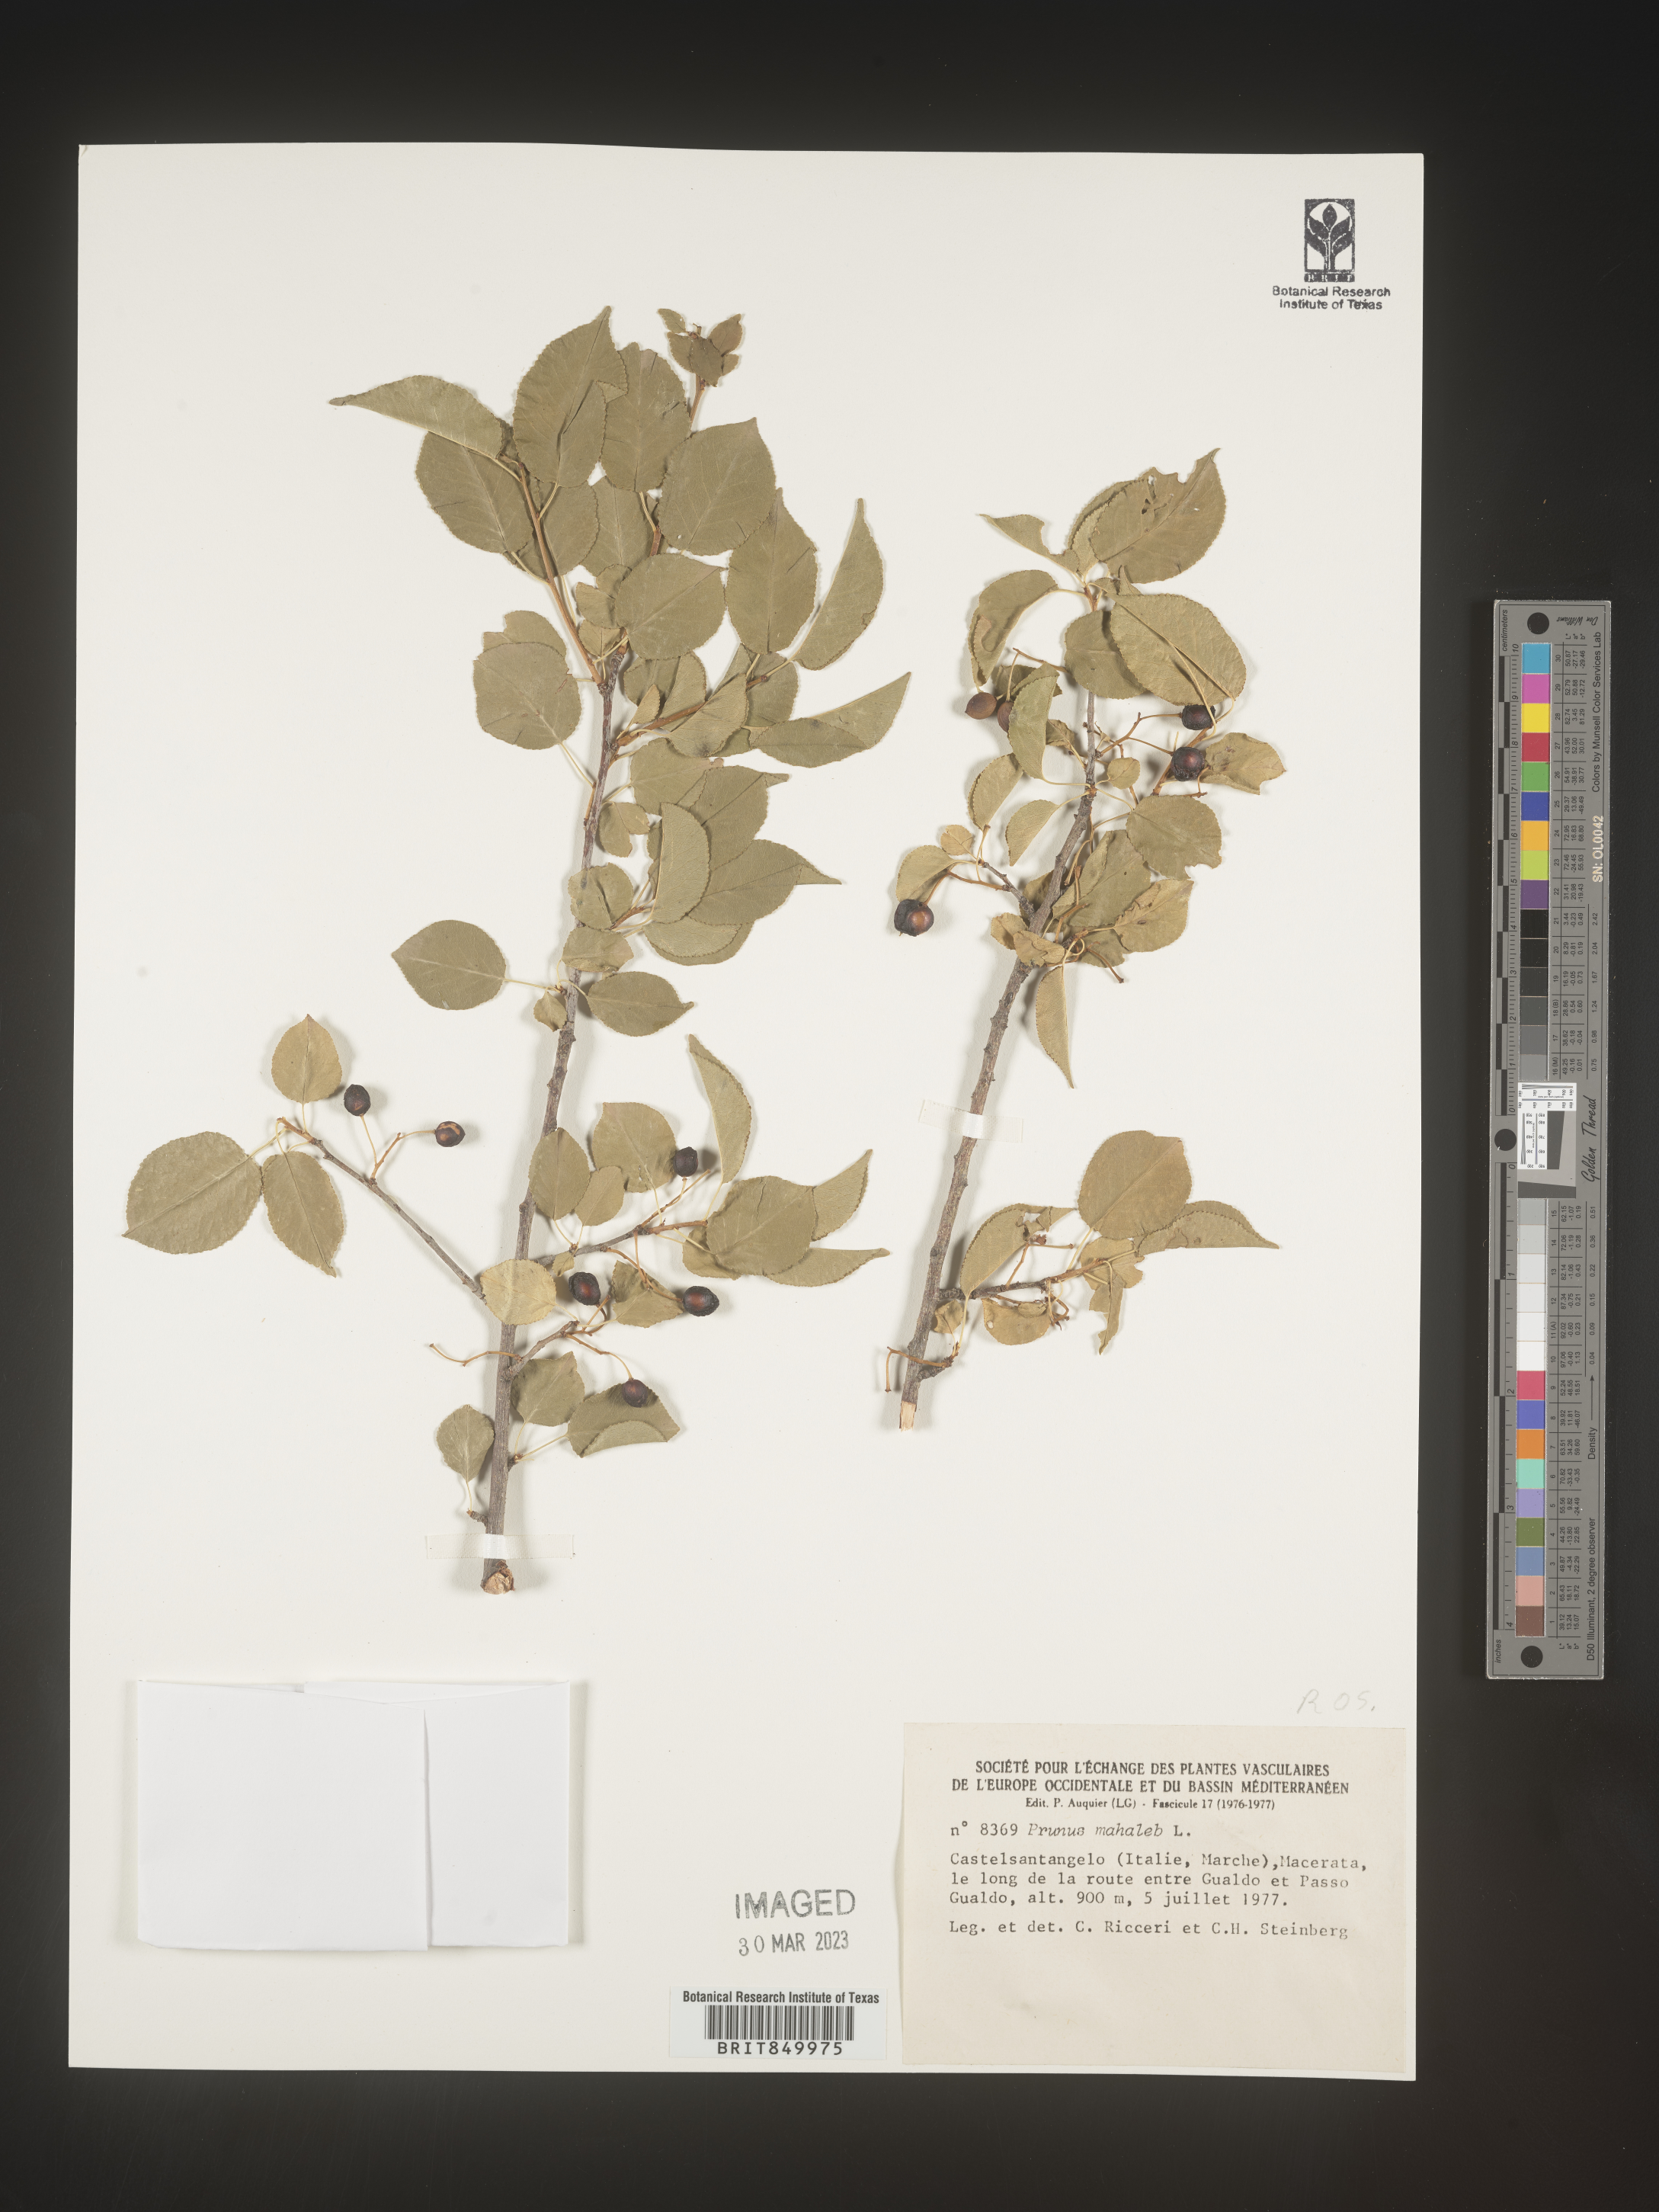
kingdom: Plantae
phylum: Tracheophyta
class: Magnoliopsida
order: Rosales
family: Rosaceae
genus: Prunus
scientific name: Prunus
